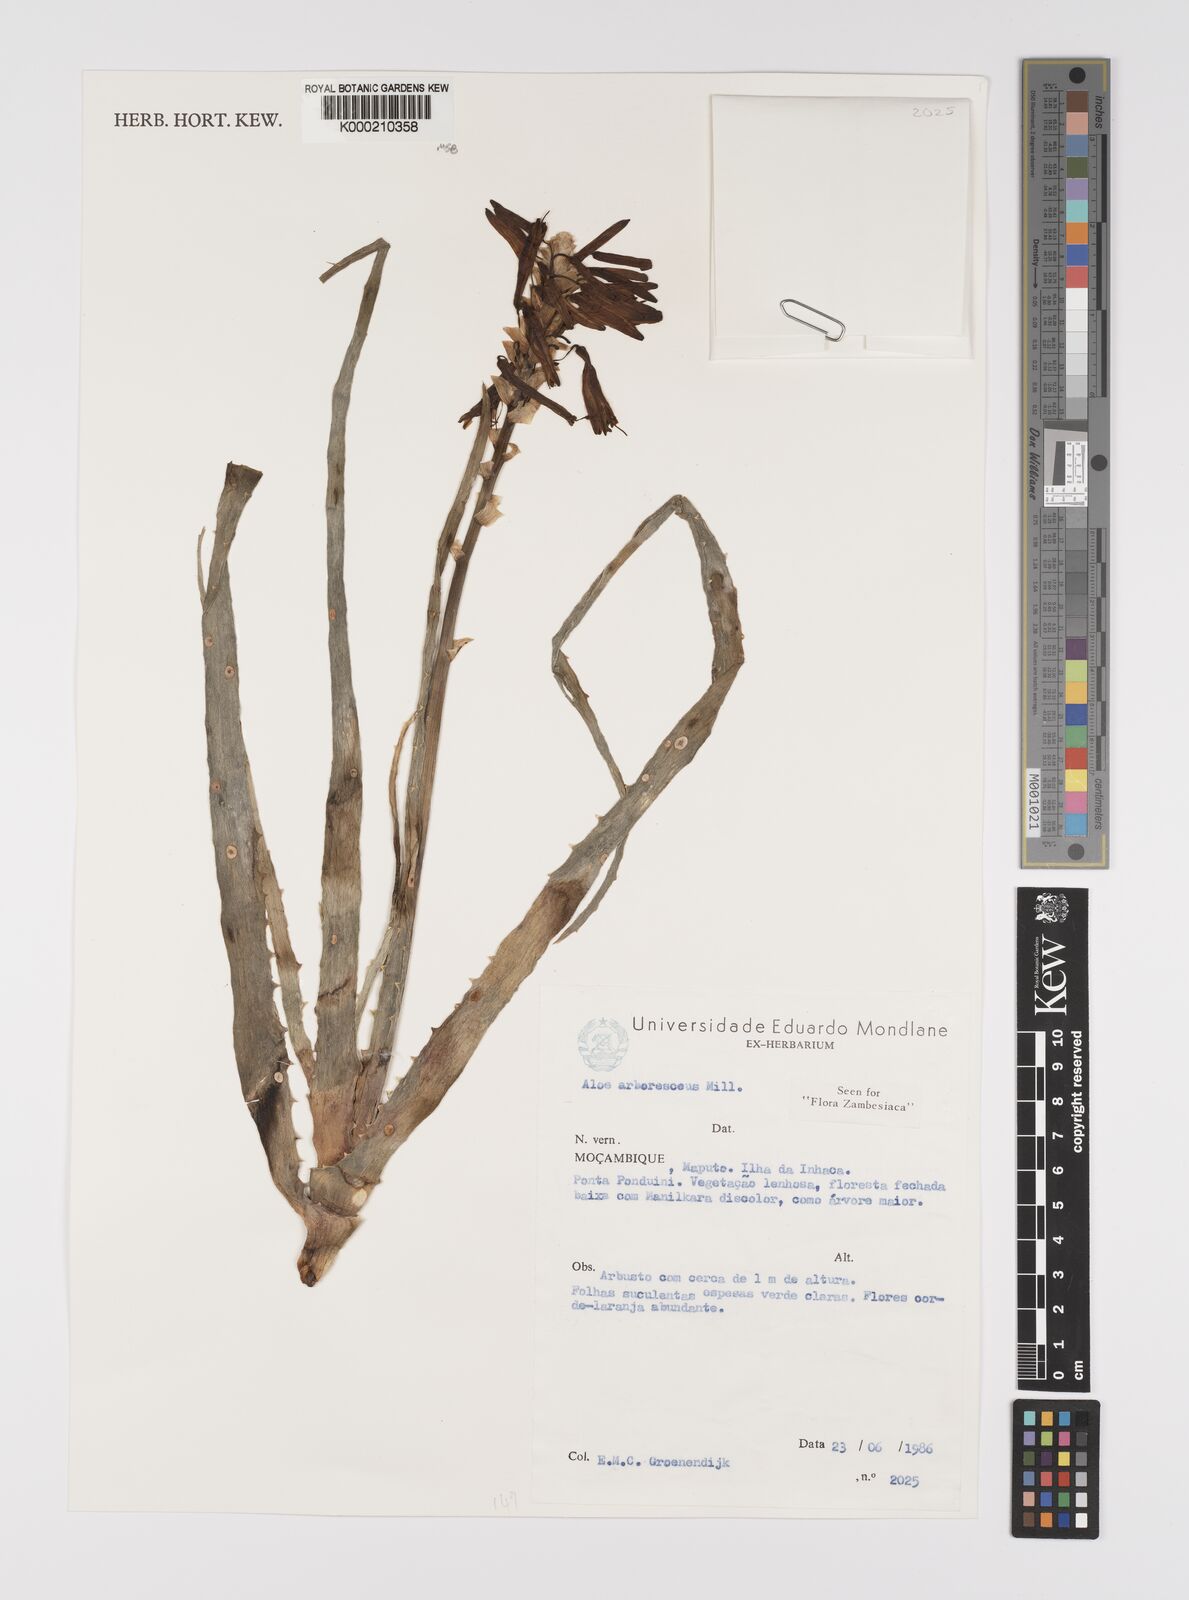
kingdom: Plantae
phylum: Tracheophyta
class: Liliopsida
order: Asparagales
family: Asphodelaceae
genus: Aloe
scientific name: Aloe arborescens
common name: Candelabra aloe
